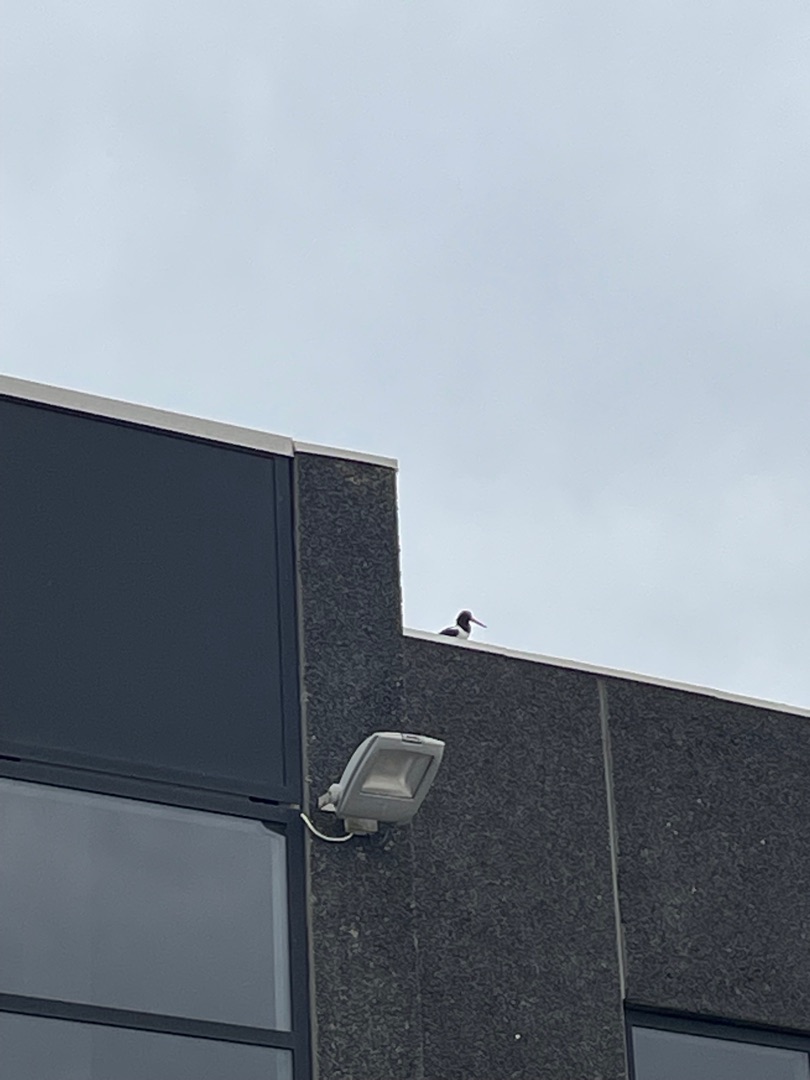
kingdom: Animalia
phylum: Chordata
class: Aves
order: Charadriiformes
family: Haematopodidae
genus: Haematopus
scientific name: Haematopus ostralegus
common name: Strandskade
